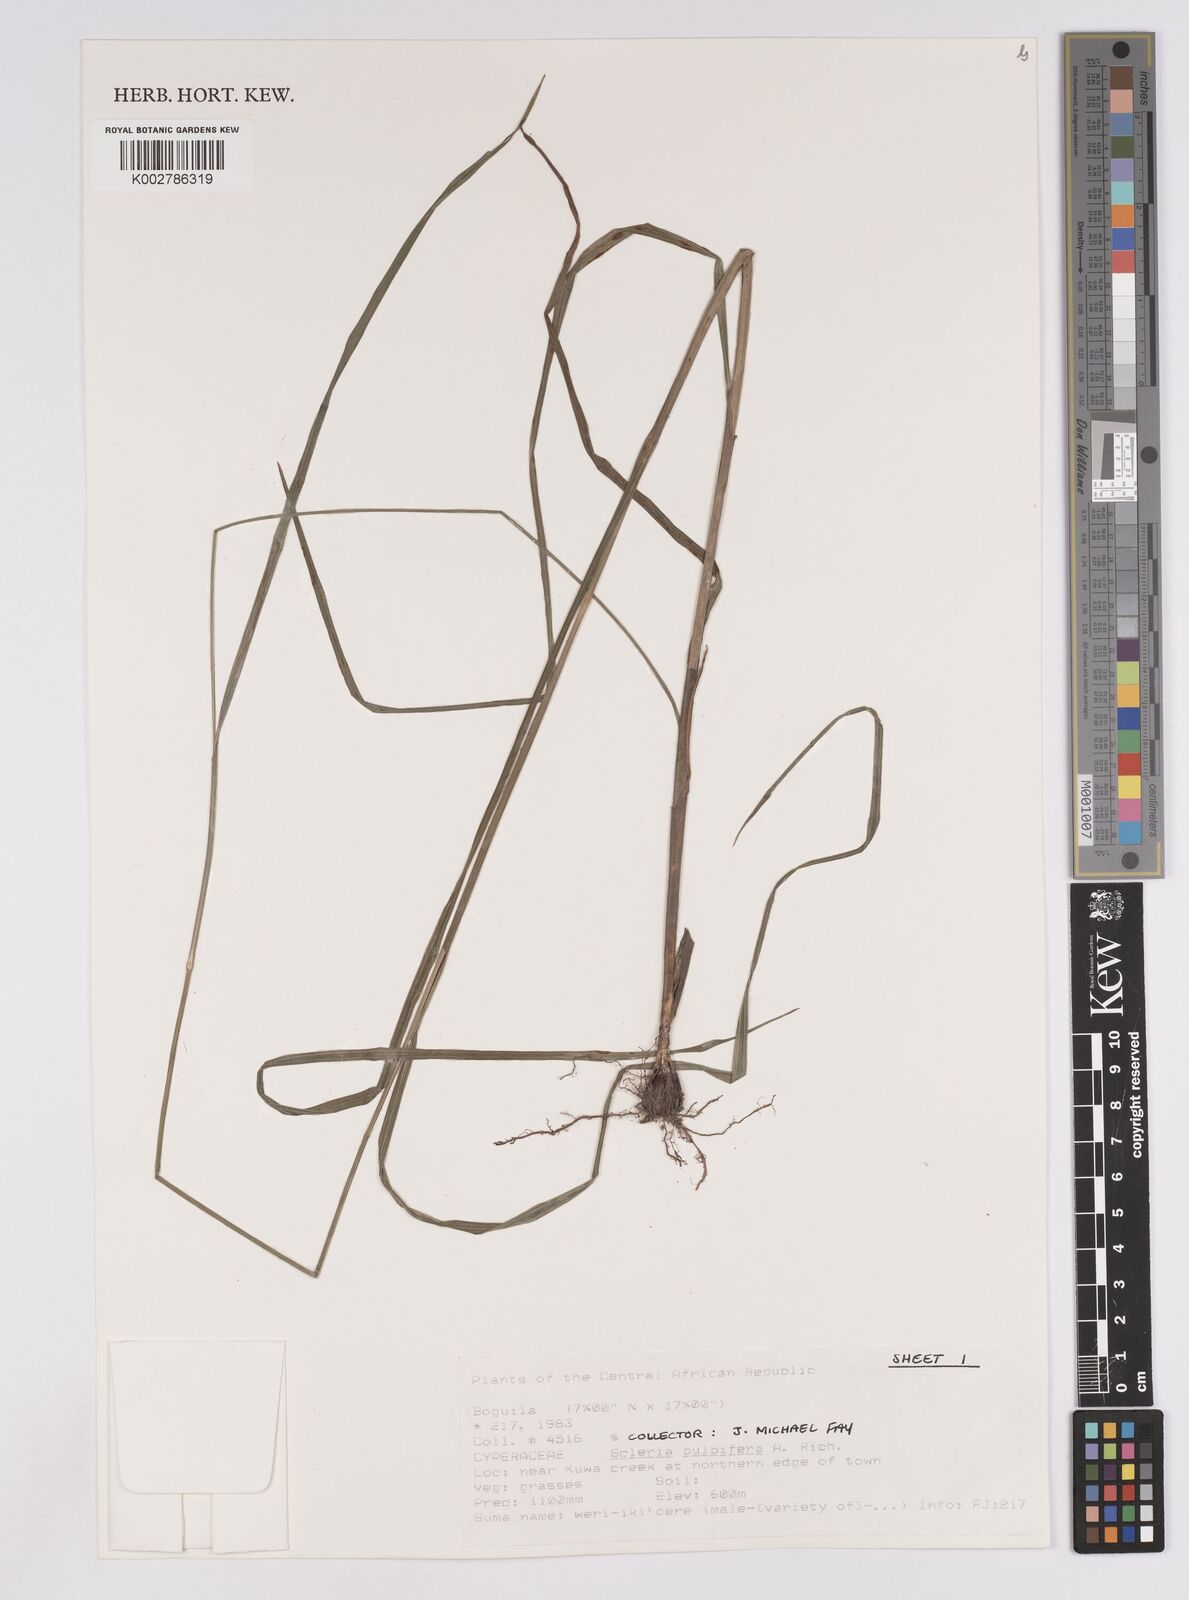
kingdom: Plantae
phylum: Tracheophyta
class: Liliopsida
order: Poales
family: Cyperaceae
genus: Scleria
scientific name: Scleria bulbifera
